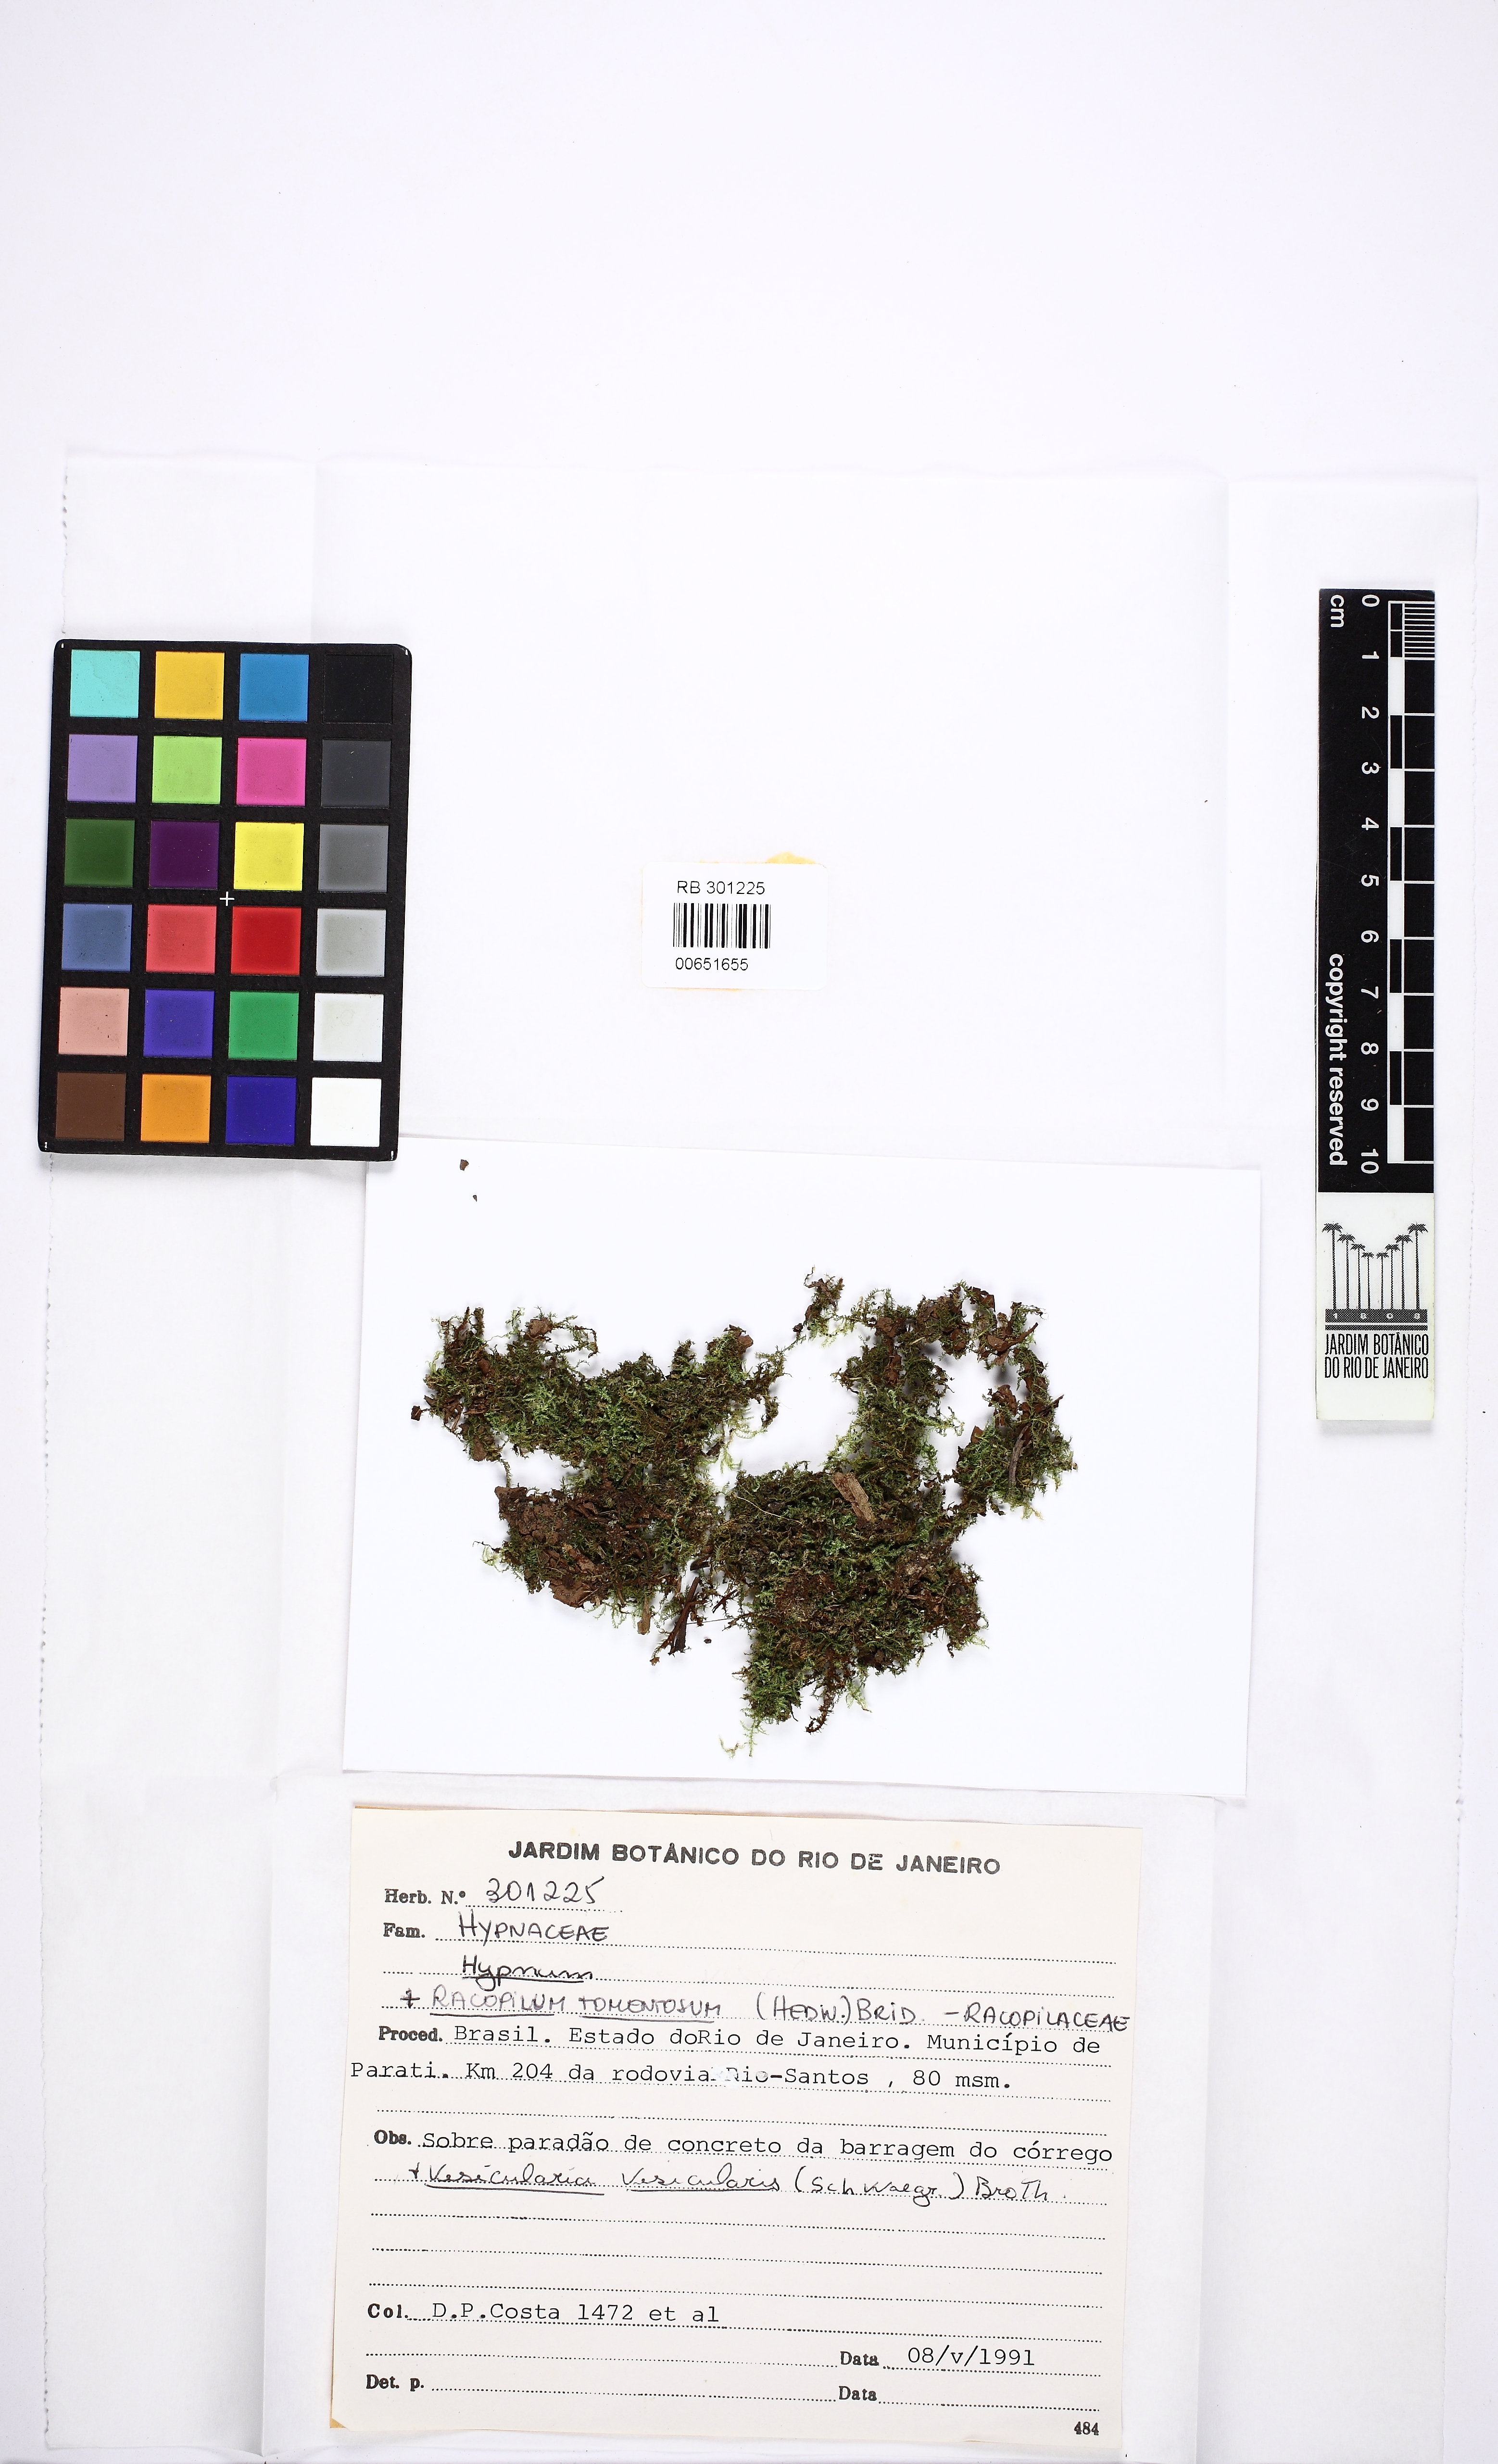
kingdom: Plantae
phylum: Bryophyta
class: Bryopsida
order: Hypnales
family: Hypnaceae
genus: Hypnum
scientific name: Hypnum
